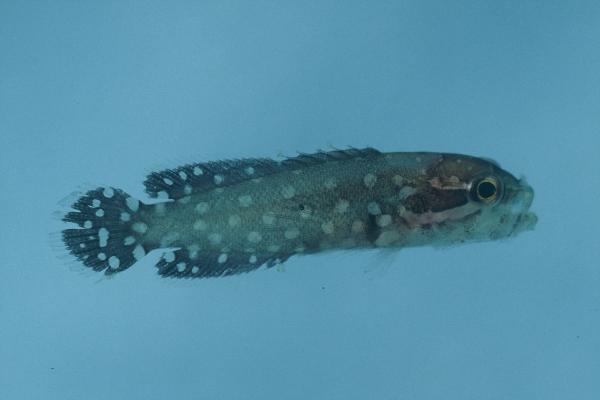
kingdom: Animalia
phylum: Chordata
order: Perciformes
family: Serranidae
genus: Pseudogramma
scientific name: Pseudogramma polyacantha
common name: Bold-spot soapfish
